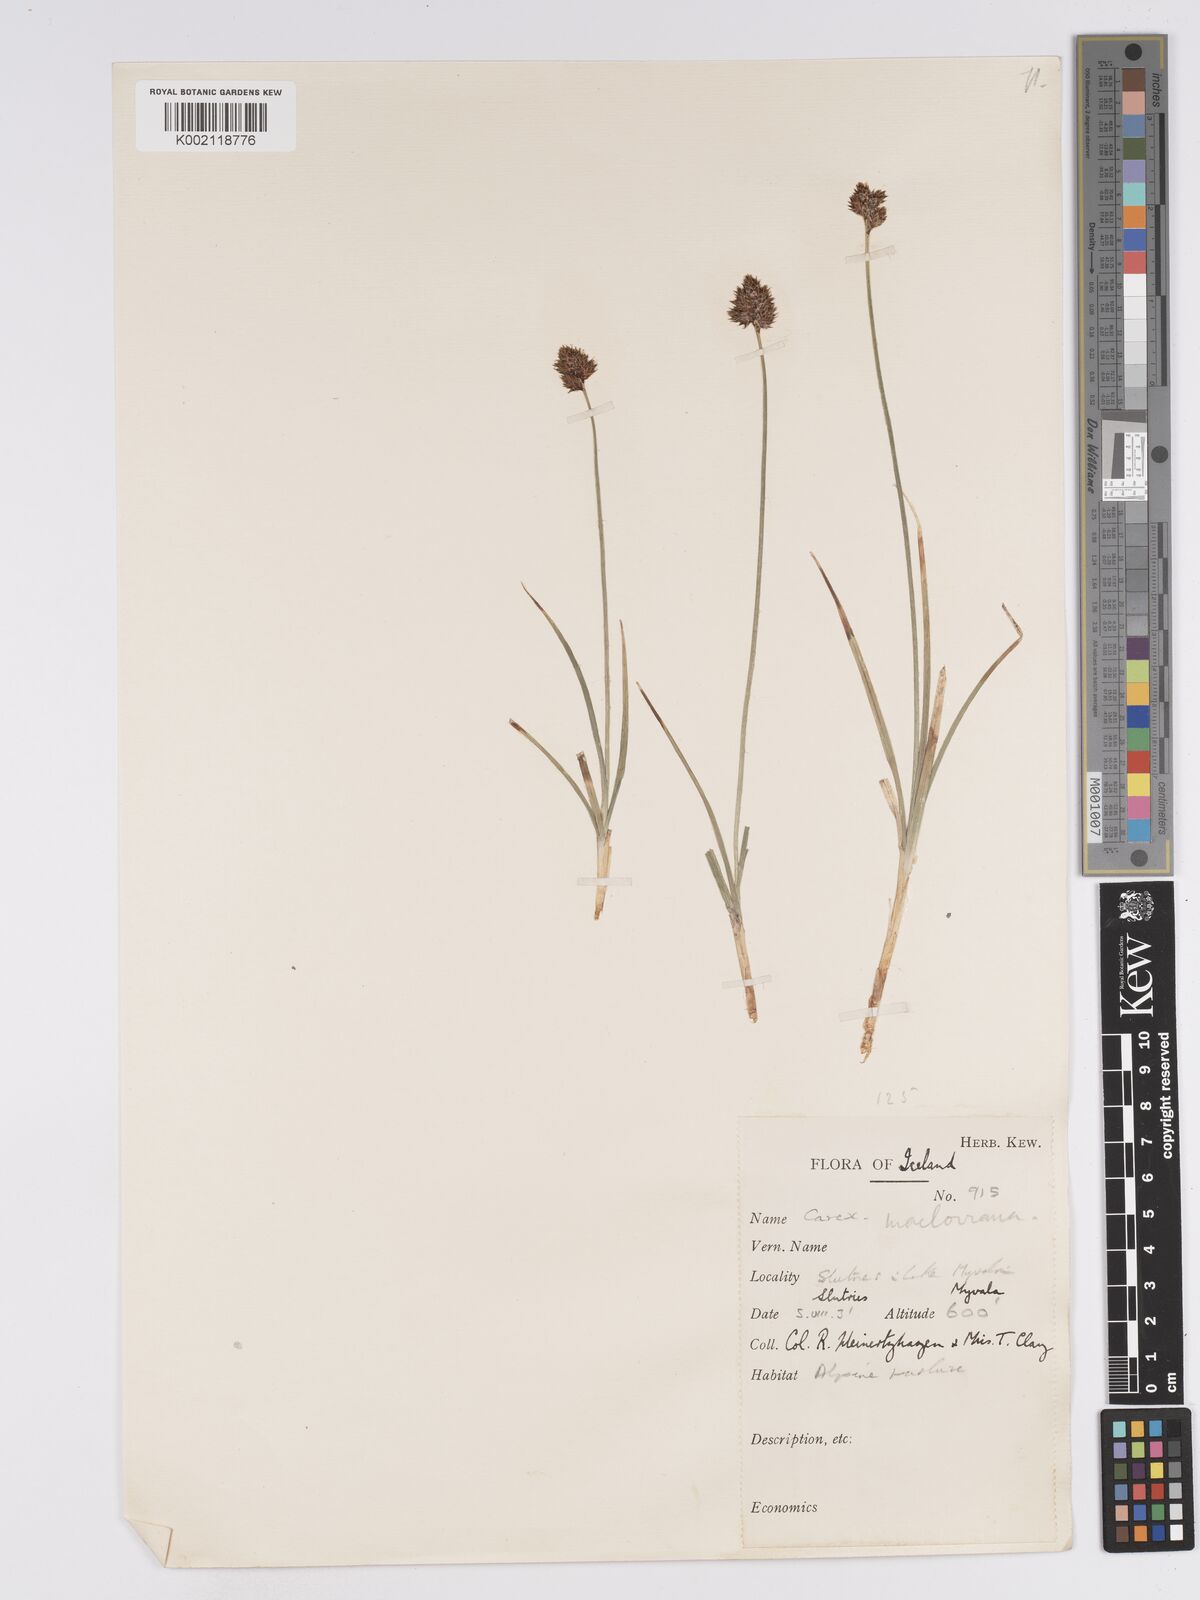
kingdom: Plantae
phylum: Tracheophyta
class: Liliopsida
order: Poales
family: Cyperaceae
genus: Carex
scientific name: Carex macloviana
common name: Falkland island sedge
